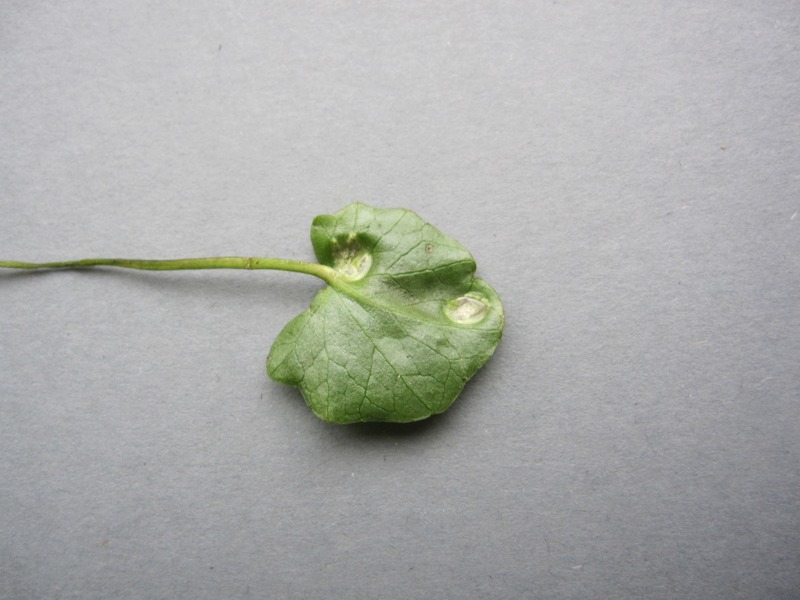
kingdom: Fungi
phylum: Basidiomycota
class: Ustilaginomycetes
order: Urocystidales
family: Urocystidaceae
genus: Urocystis
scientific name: Urocystis ficariae
